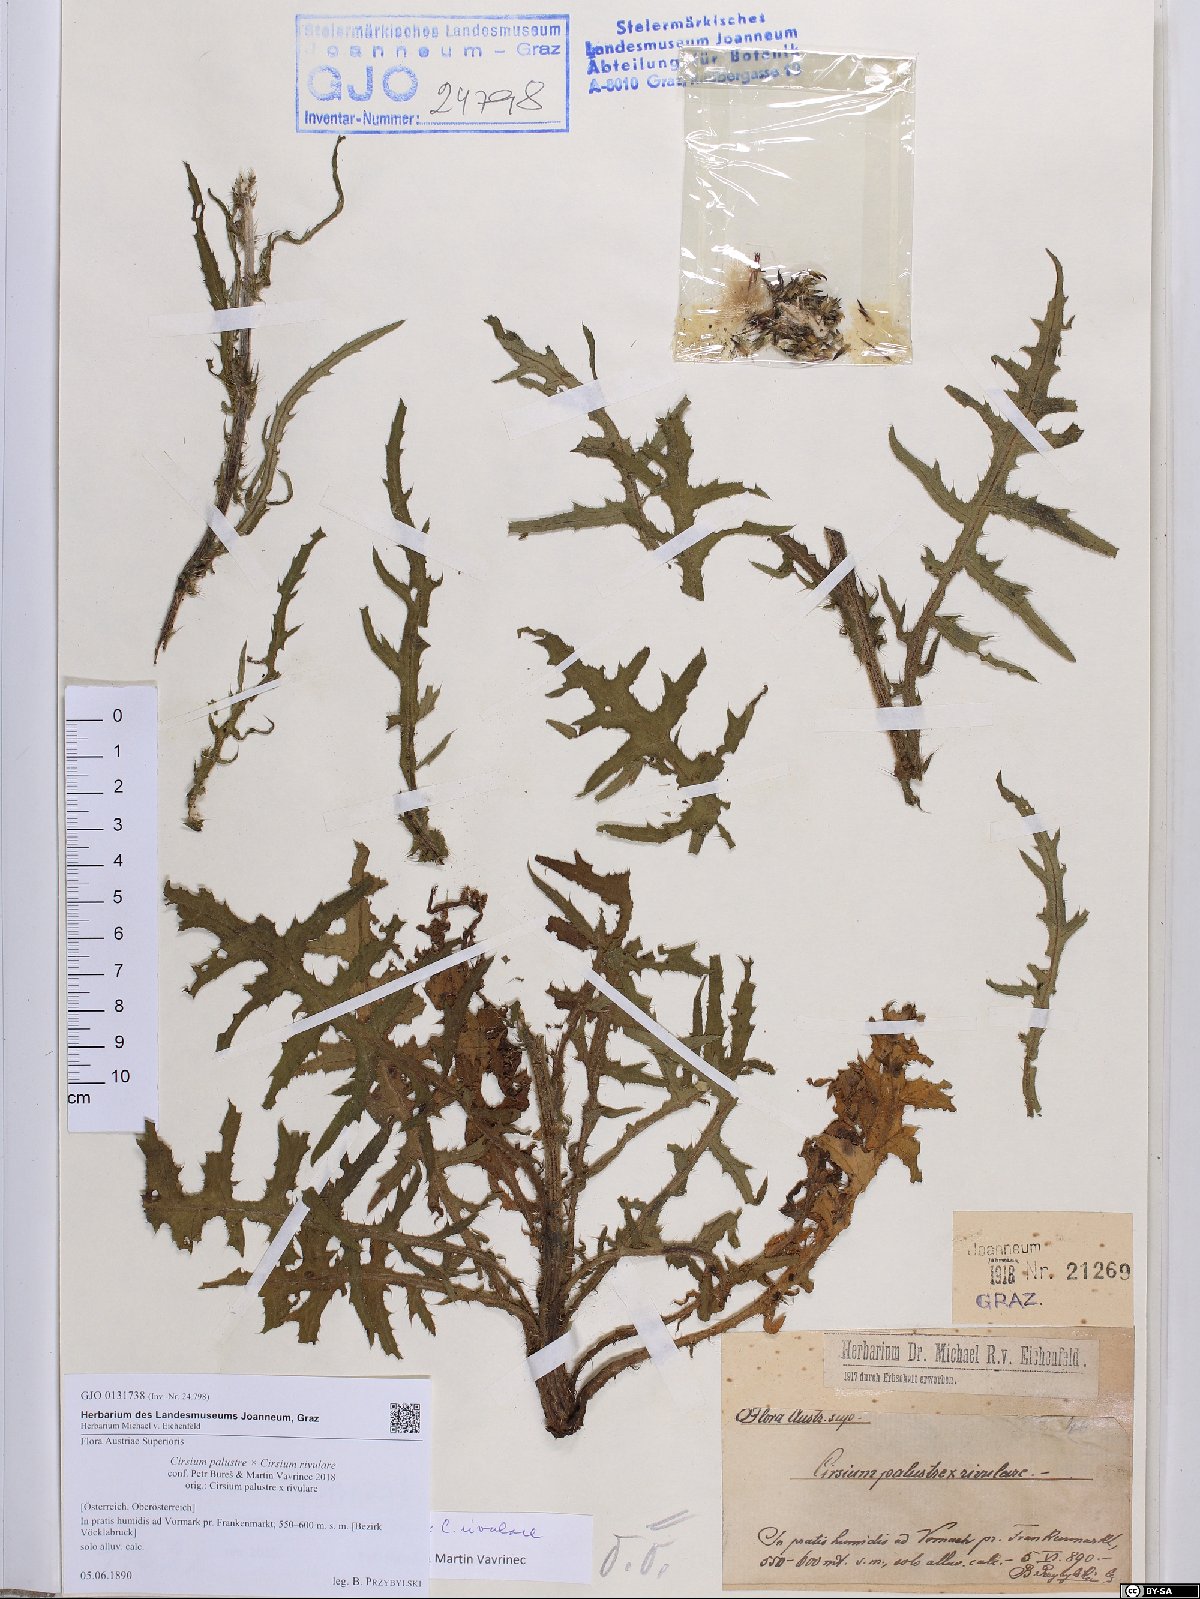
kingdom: Plantae
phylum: Tracheophyta
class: Magnoliopsida
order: Asterales
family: Asteraceae
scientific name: Asteraceae
